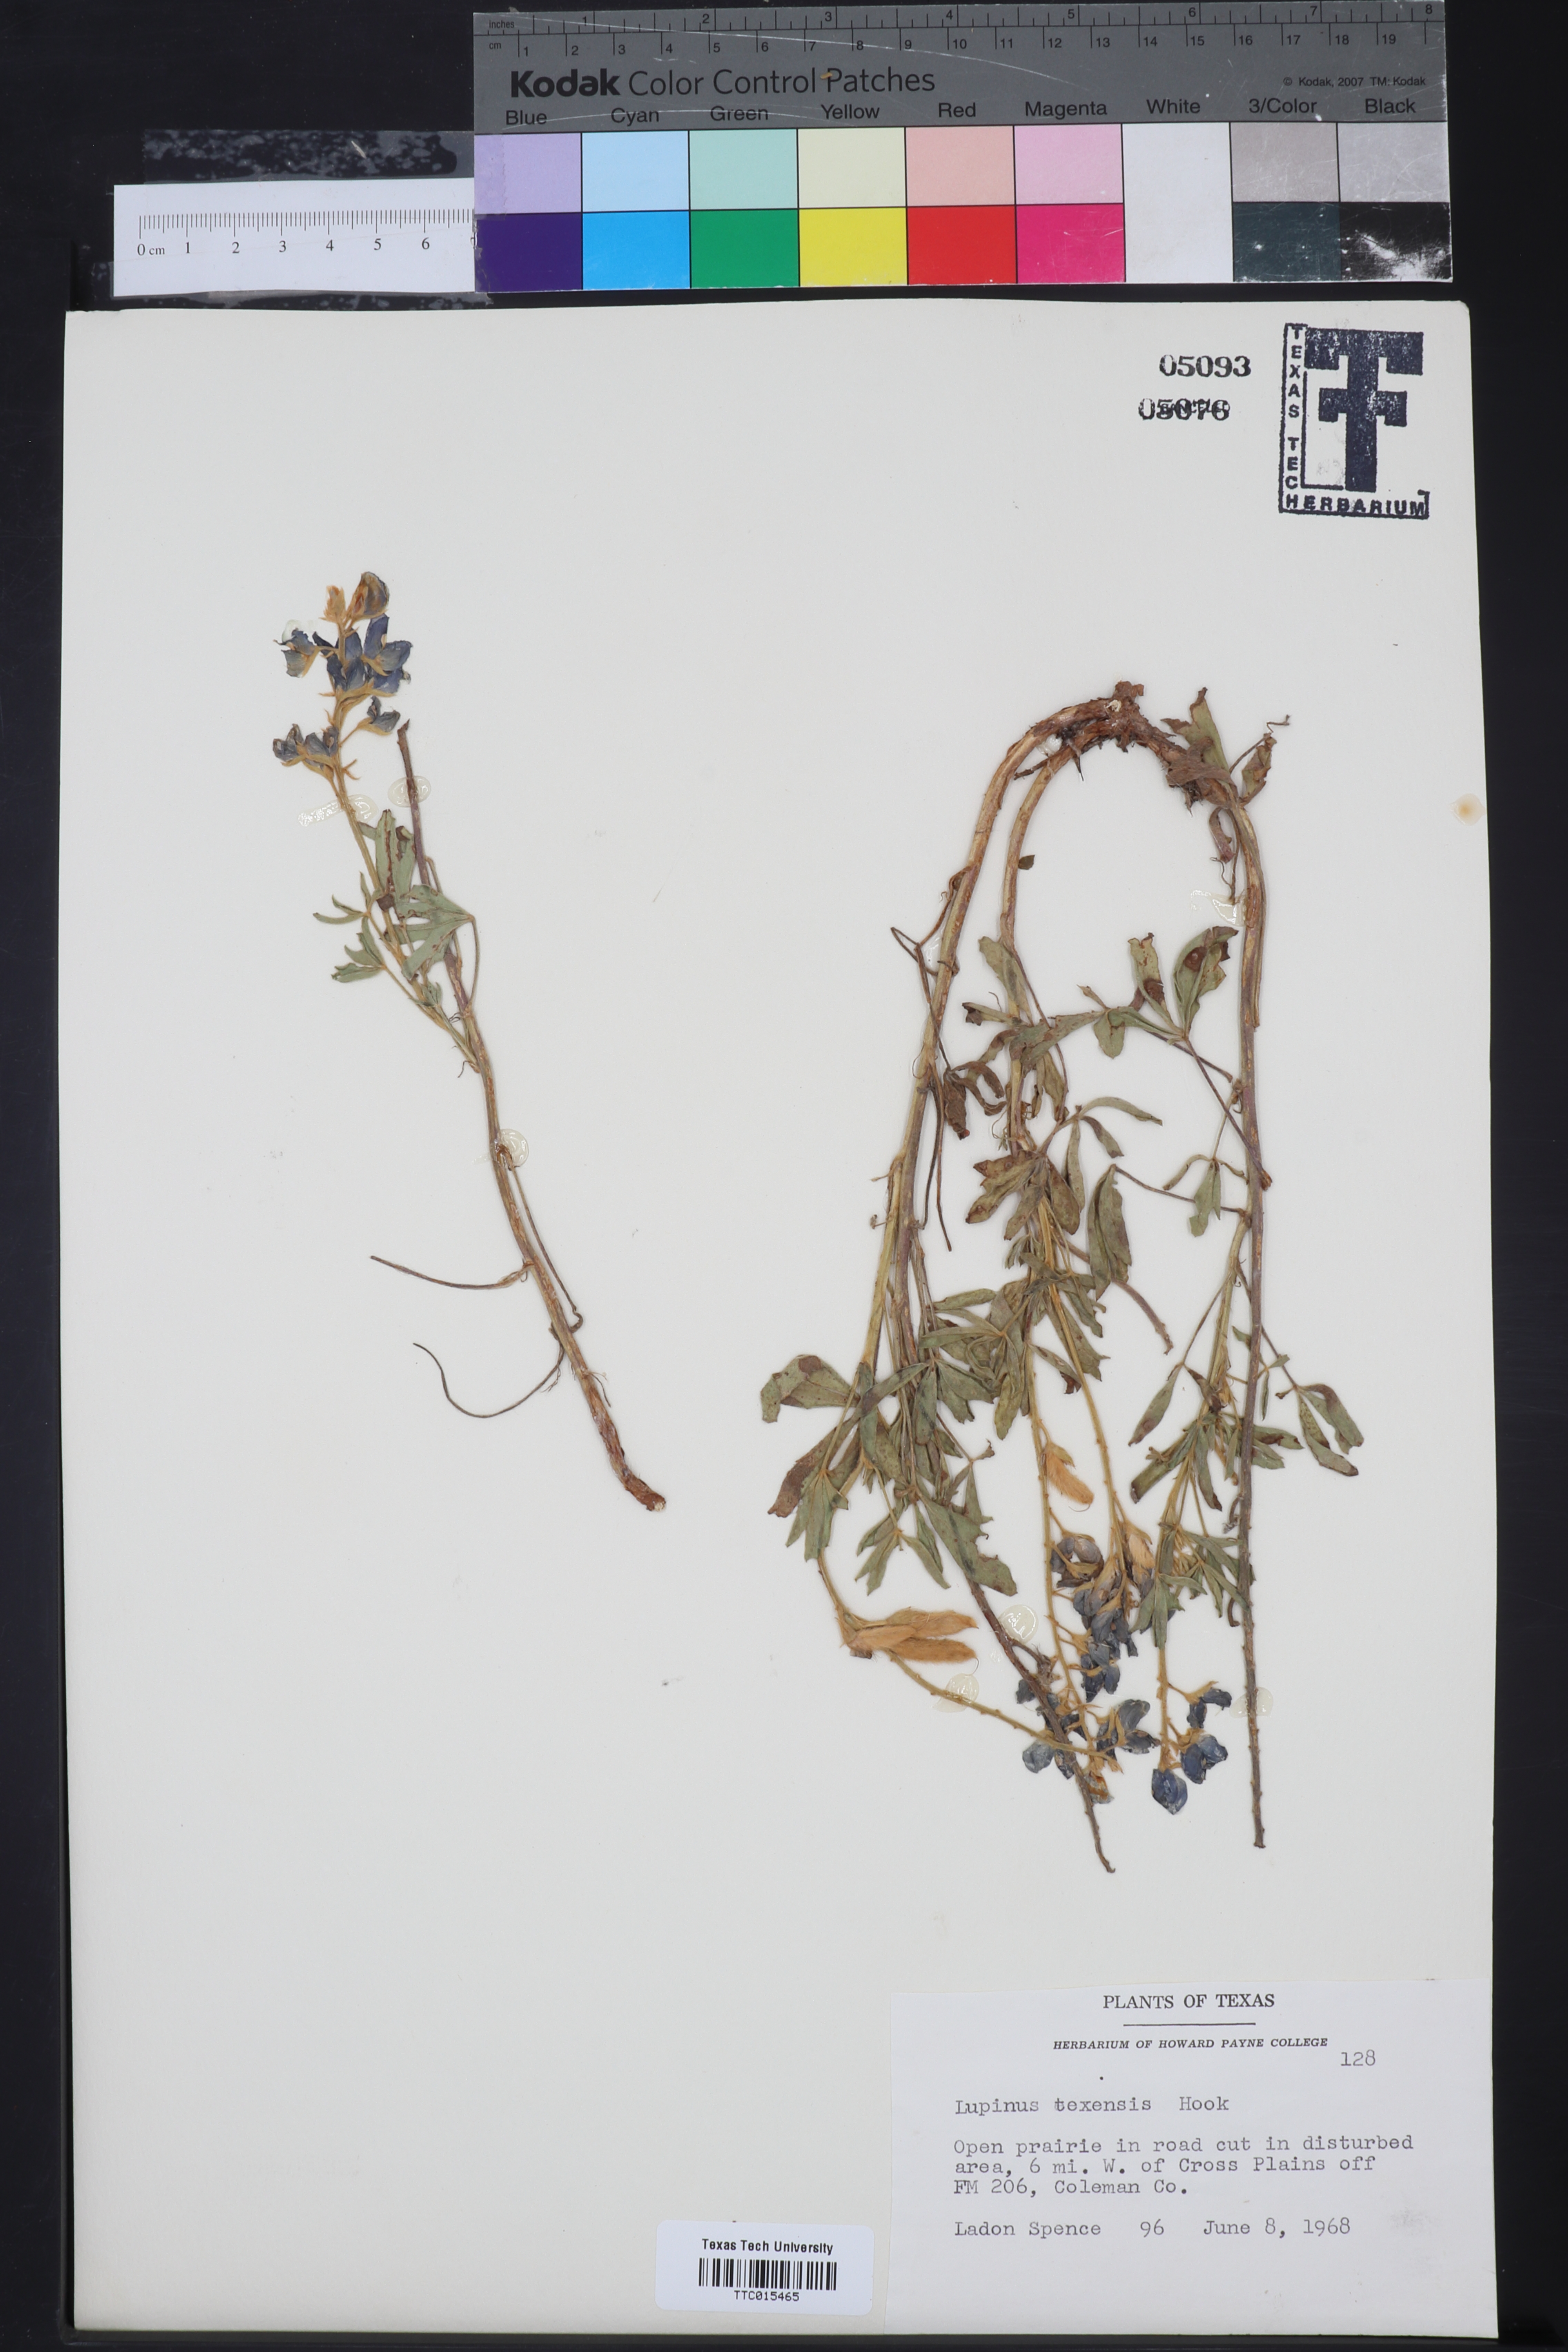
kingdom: Plantae
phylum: Tracheophyta
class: Magnoliopsida
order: Fabales
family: Fabaceae
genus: Lupinus
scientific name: Lupinus texensis
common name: Texas bluebonnet
